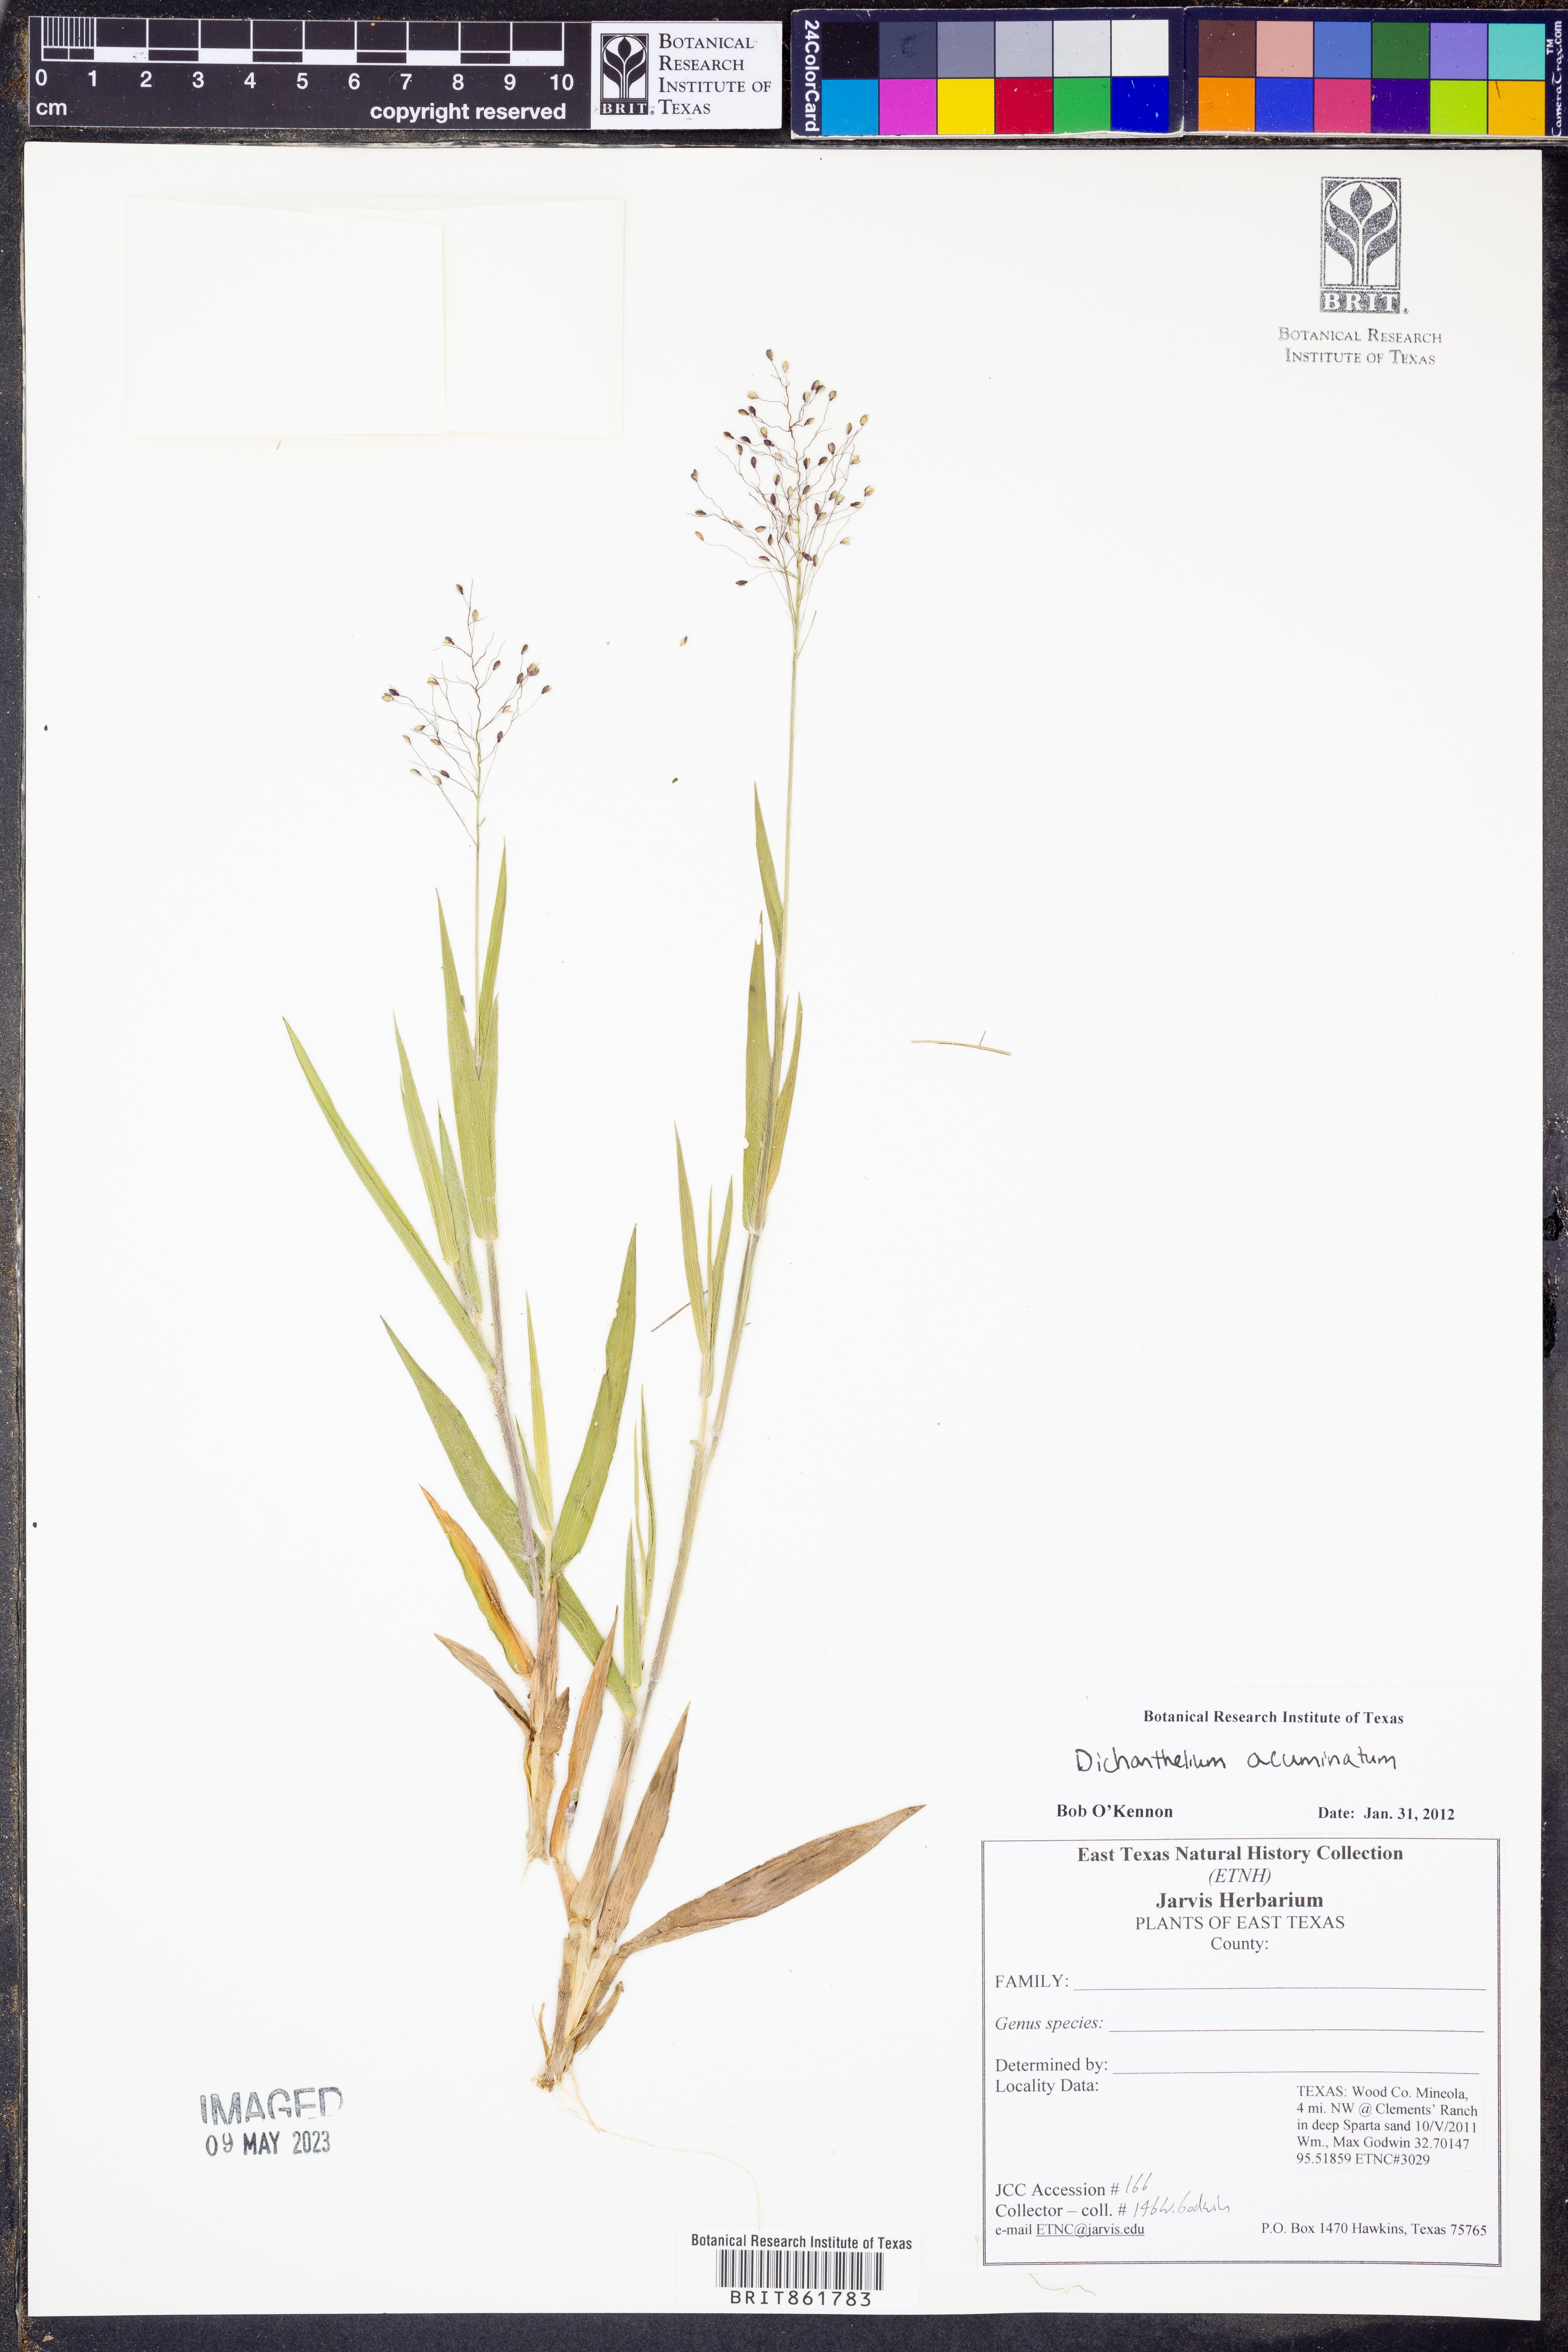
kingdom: Plantae
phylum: Tracheophyta
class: Liliopsida
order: Poales
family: Poaceae
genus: Dichanthelium
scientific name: Dichanthelium acuminatum
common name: Hairy panic grass
